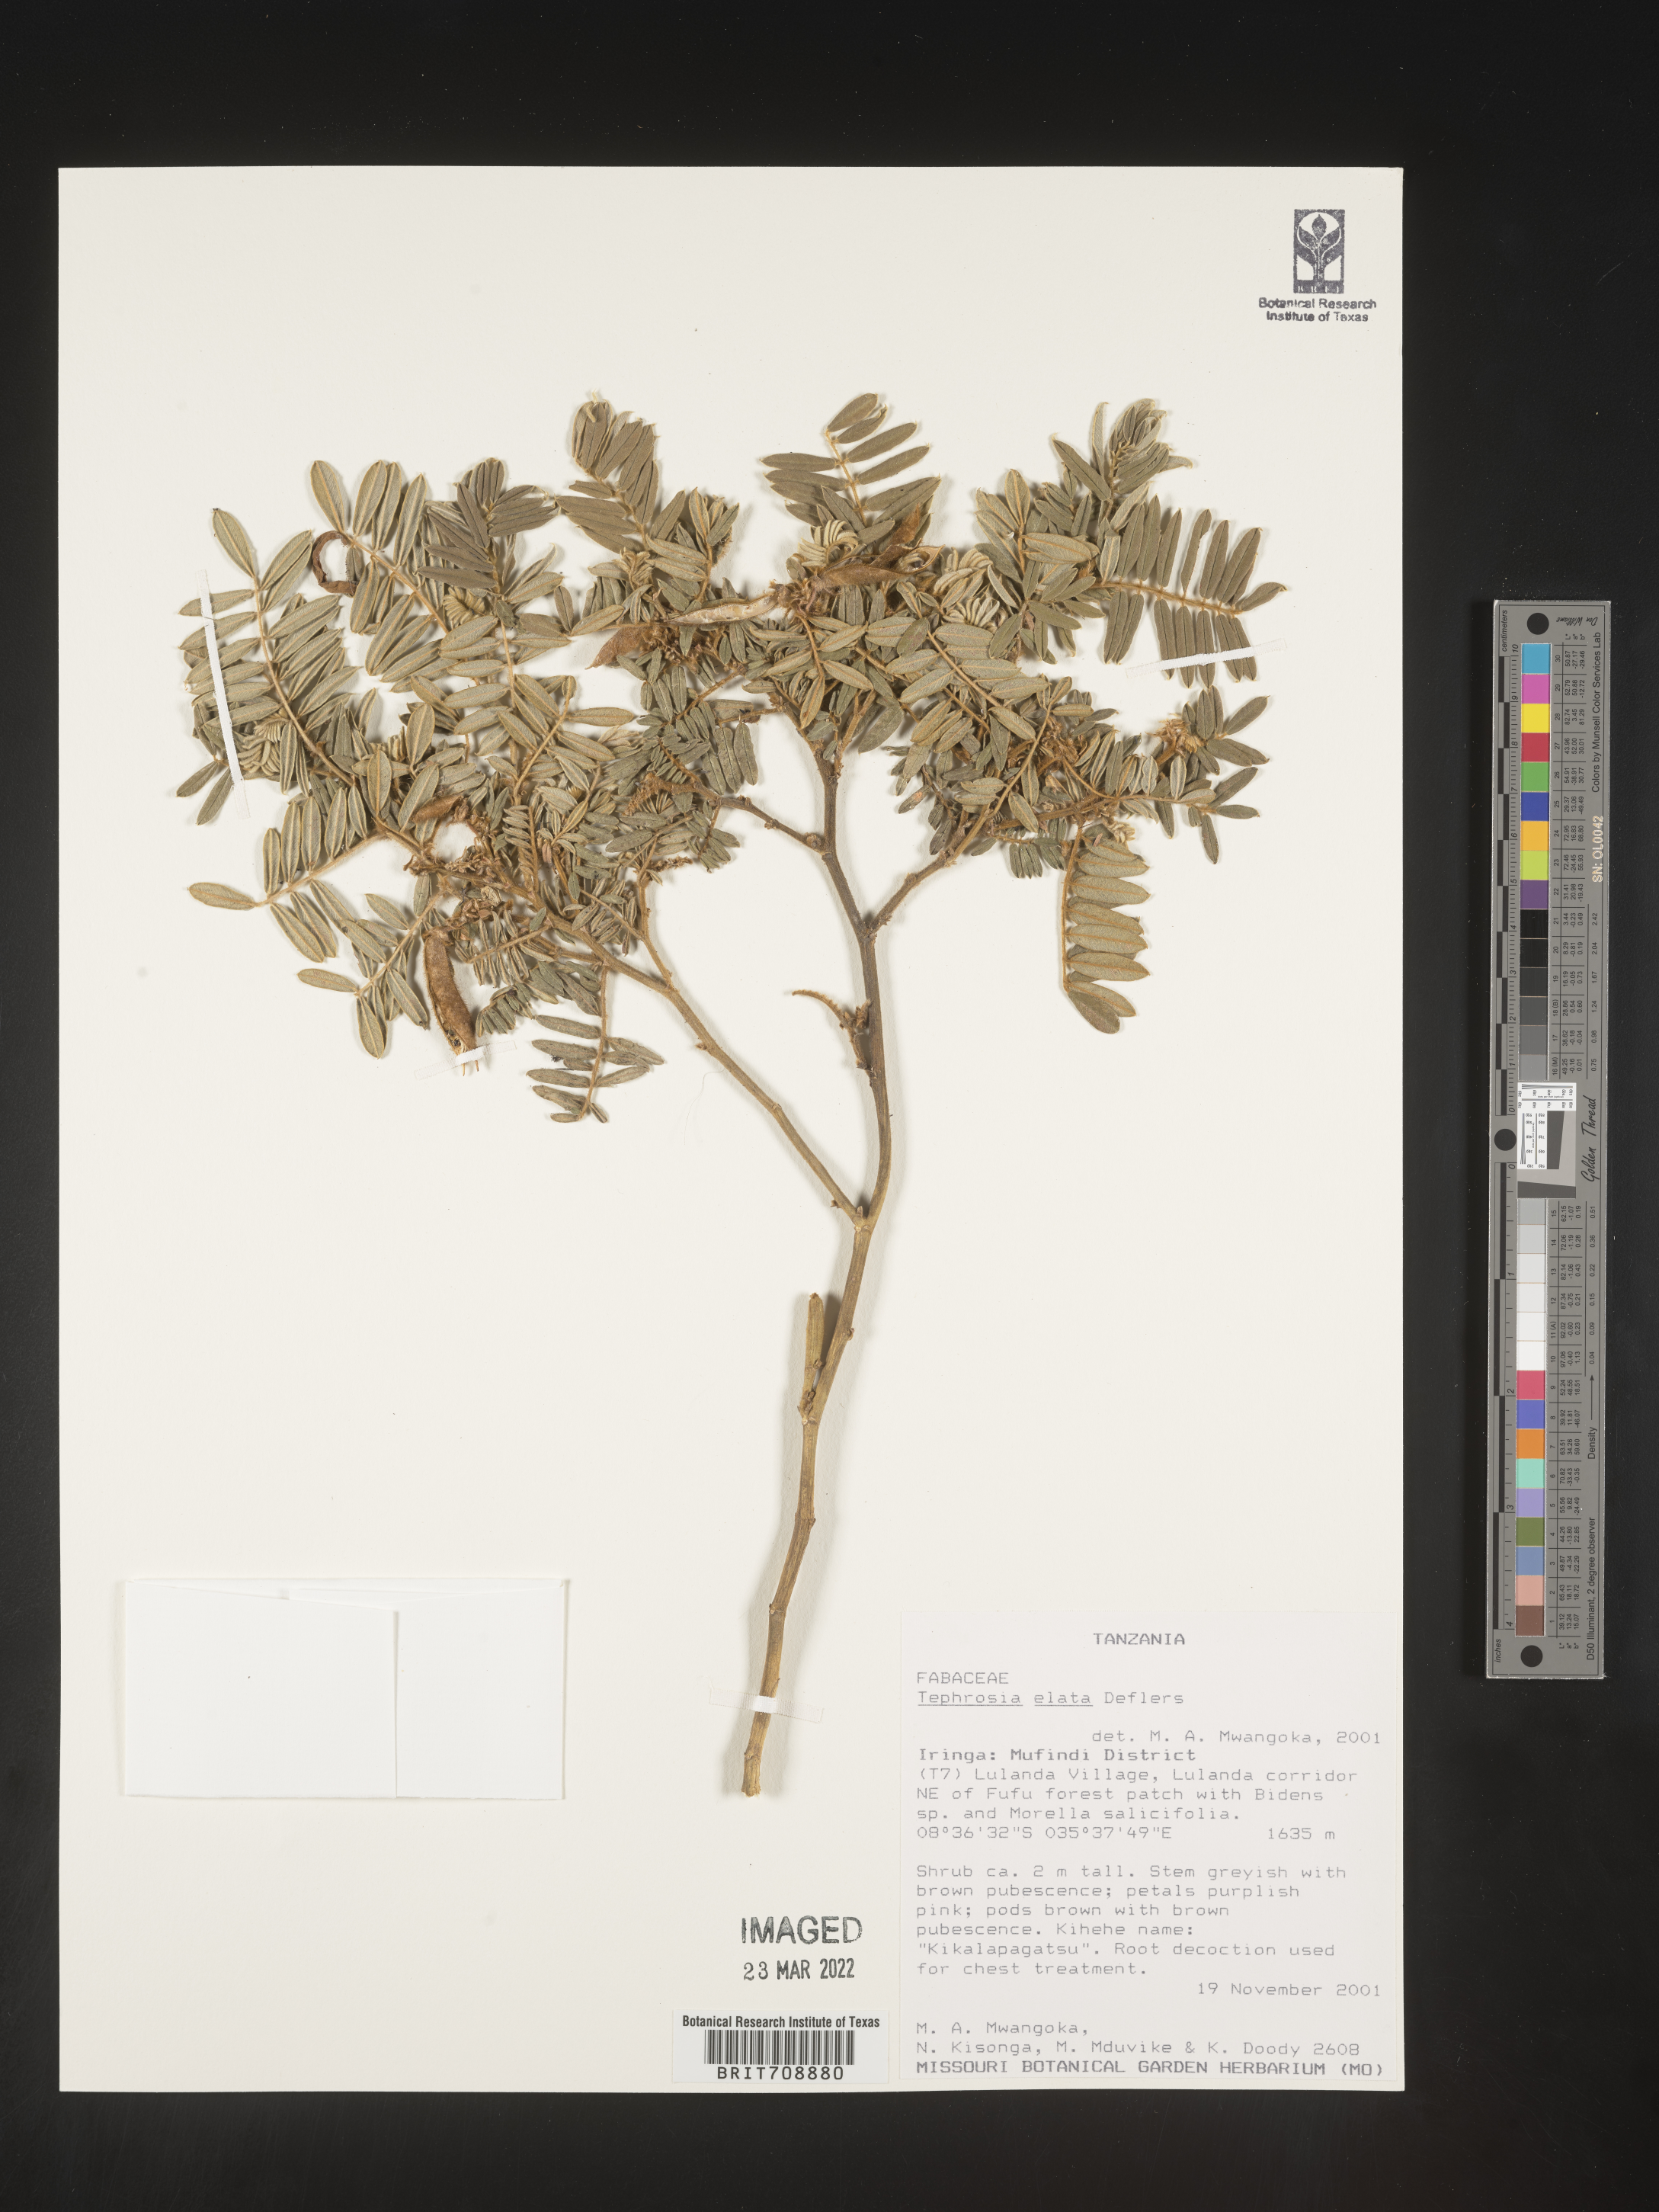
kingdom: Plantae
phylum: Tracheophyta
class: Magnoliopsida
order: Fabales
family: Fabaceae
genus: Tephrosia
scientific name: Tephrosia
